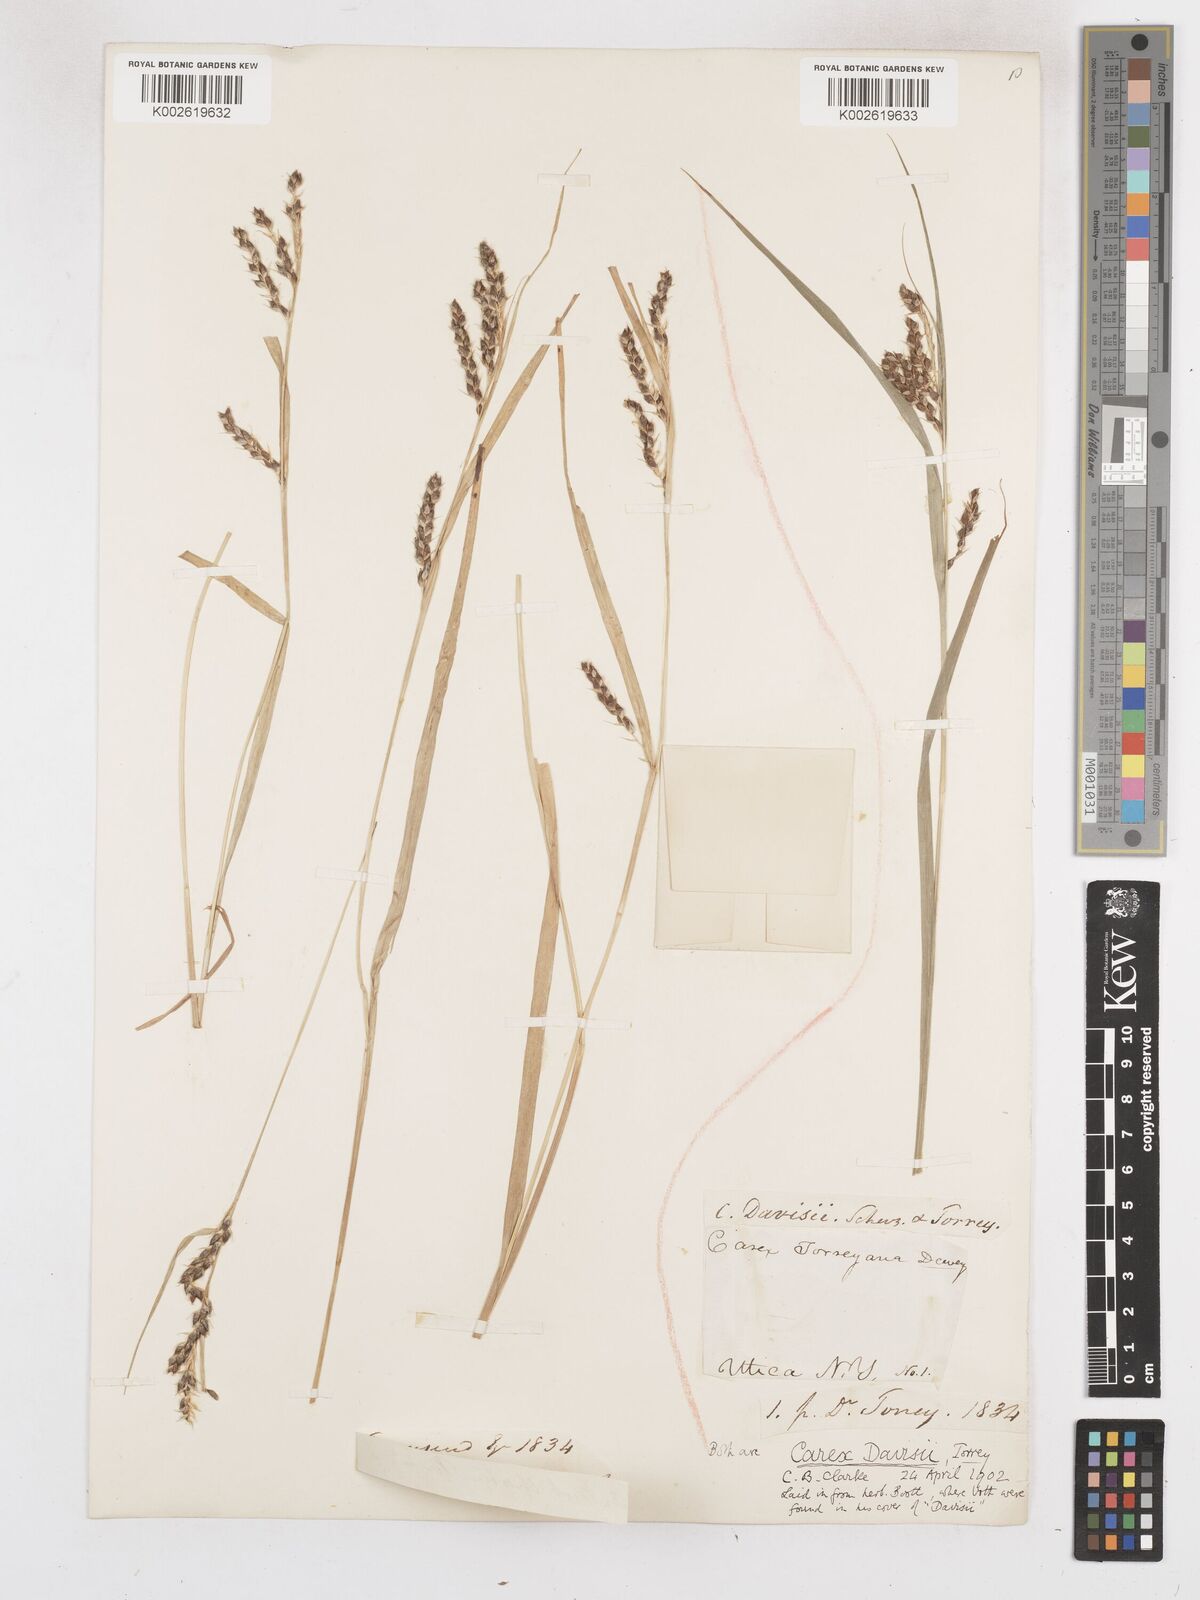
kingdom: Plantae
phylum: Tracheophyta
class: Liliopsida
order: Poales
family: Cyperaceae
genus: Carex
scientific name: Carex davisii
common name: Davis' sedge
